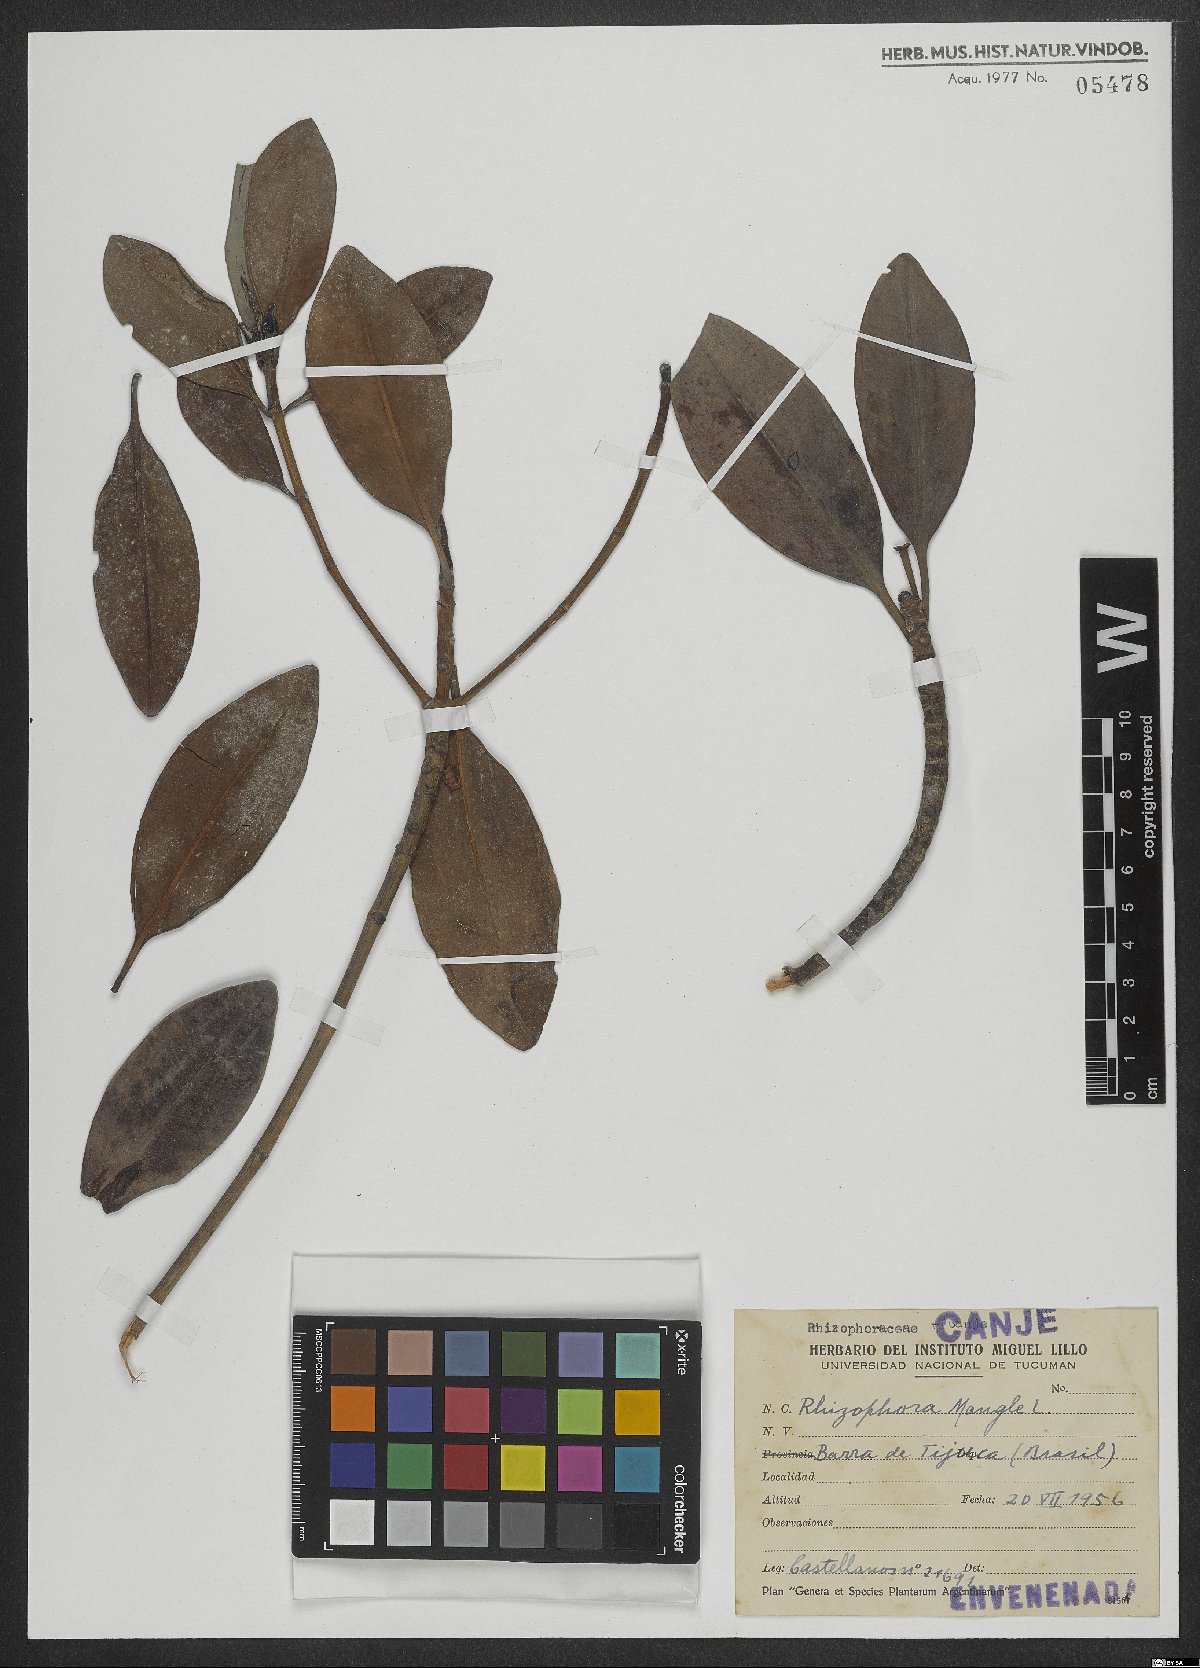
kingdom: Plantae
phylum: Tracheophyta
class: Magnoliopsida
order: Malpighiales
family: Rhizophoraceae
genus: Rhizophora
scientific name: Rhizophora mangle
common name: Red mangrove
